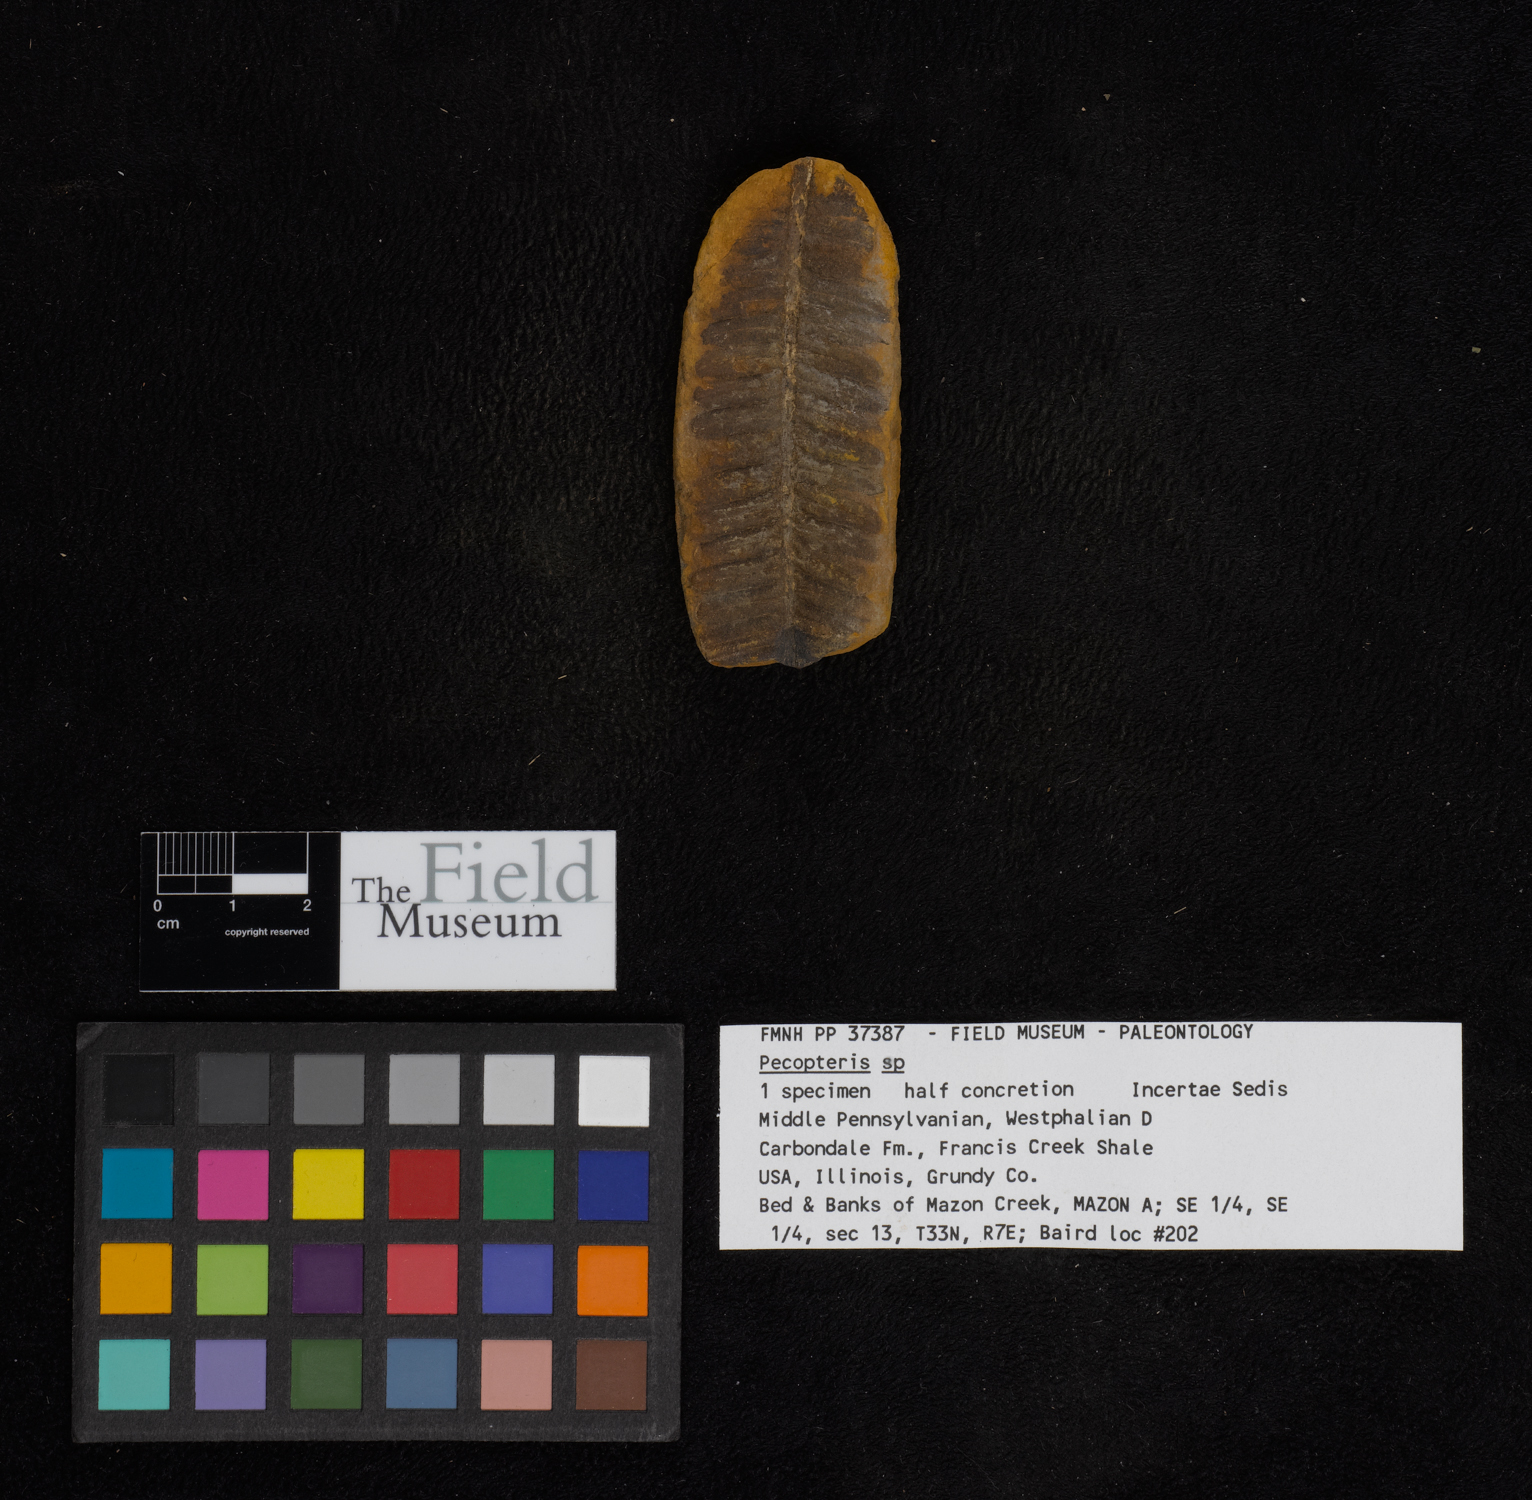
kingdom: Plantae
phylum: Tracheophyta
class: Polypodiopsida
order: Marattiales
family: Asterothecaceae
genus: Pecopteris
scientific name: Pecopteris
